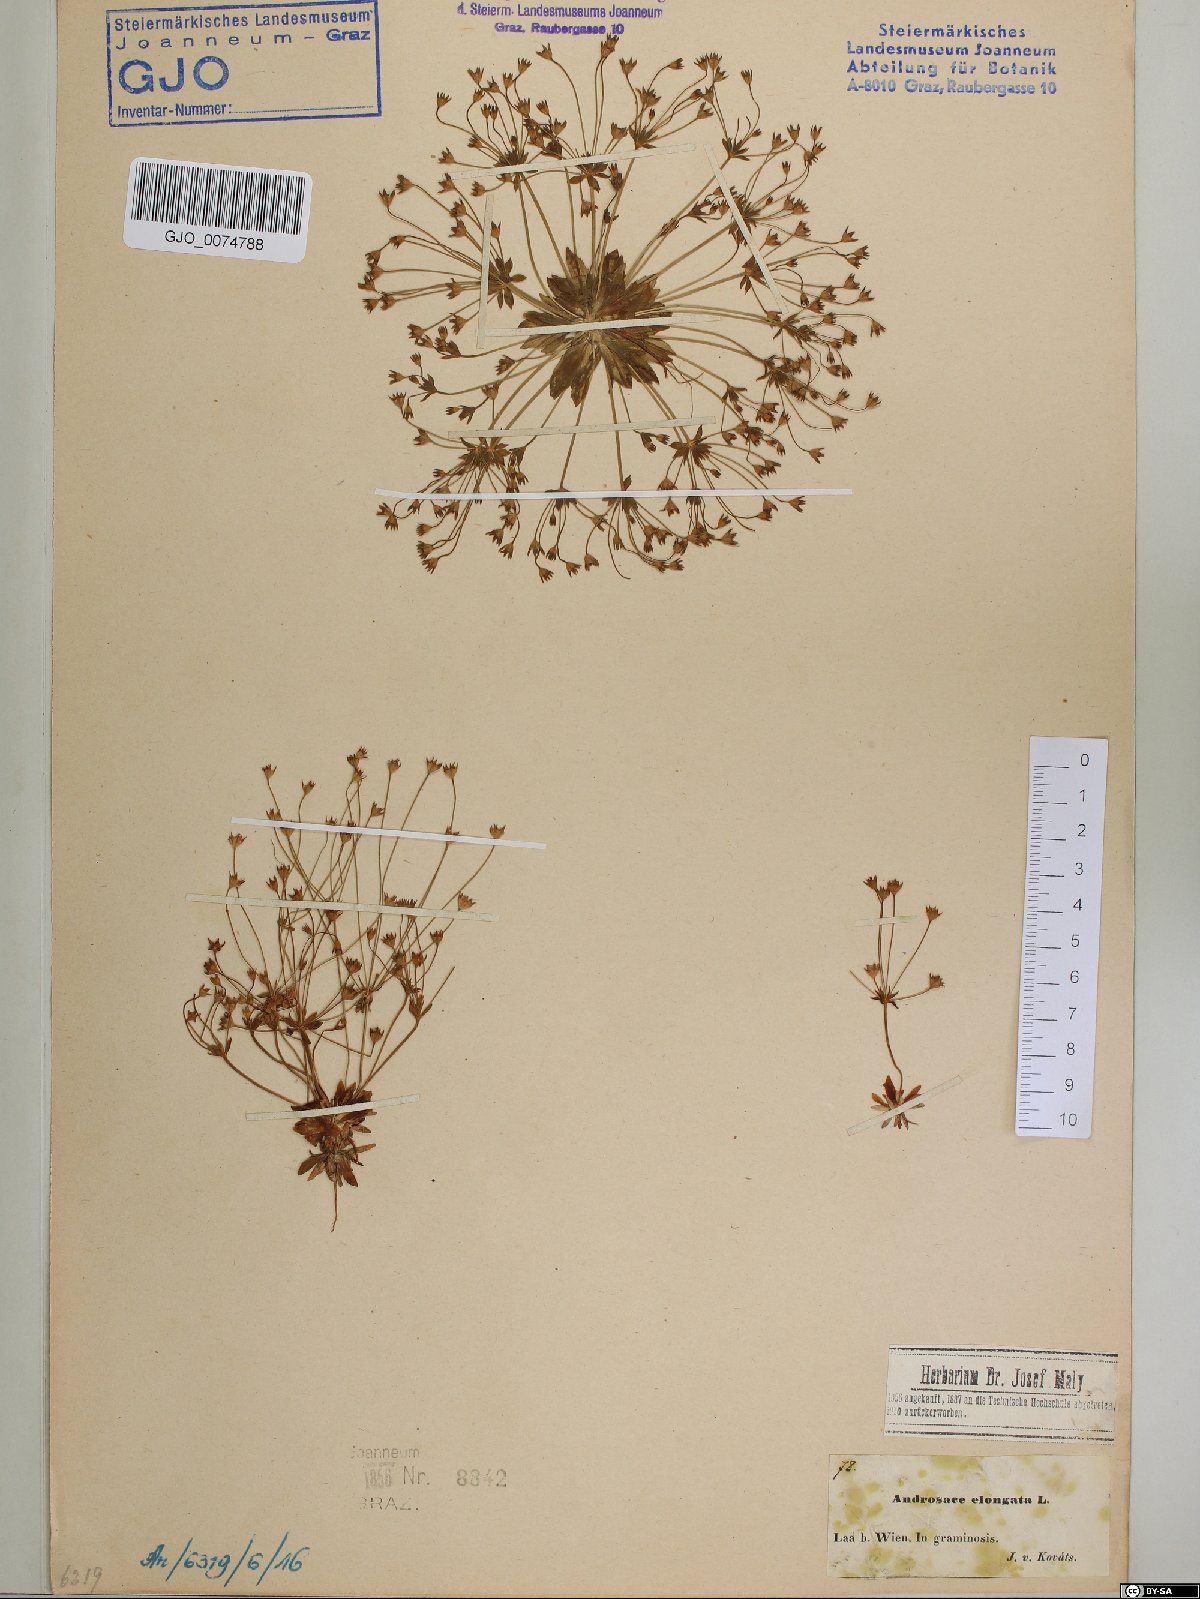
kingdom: Plantae
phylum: Tracheophyta
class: Magnoliopsida
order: Ericales
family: Primulaceae
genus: Androsace
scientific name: Androsace elongata
